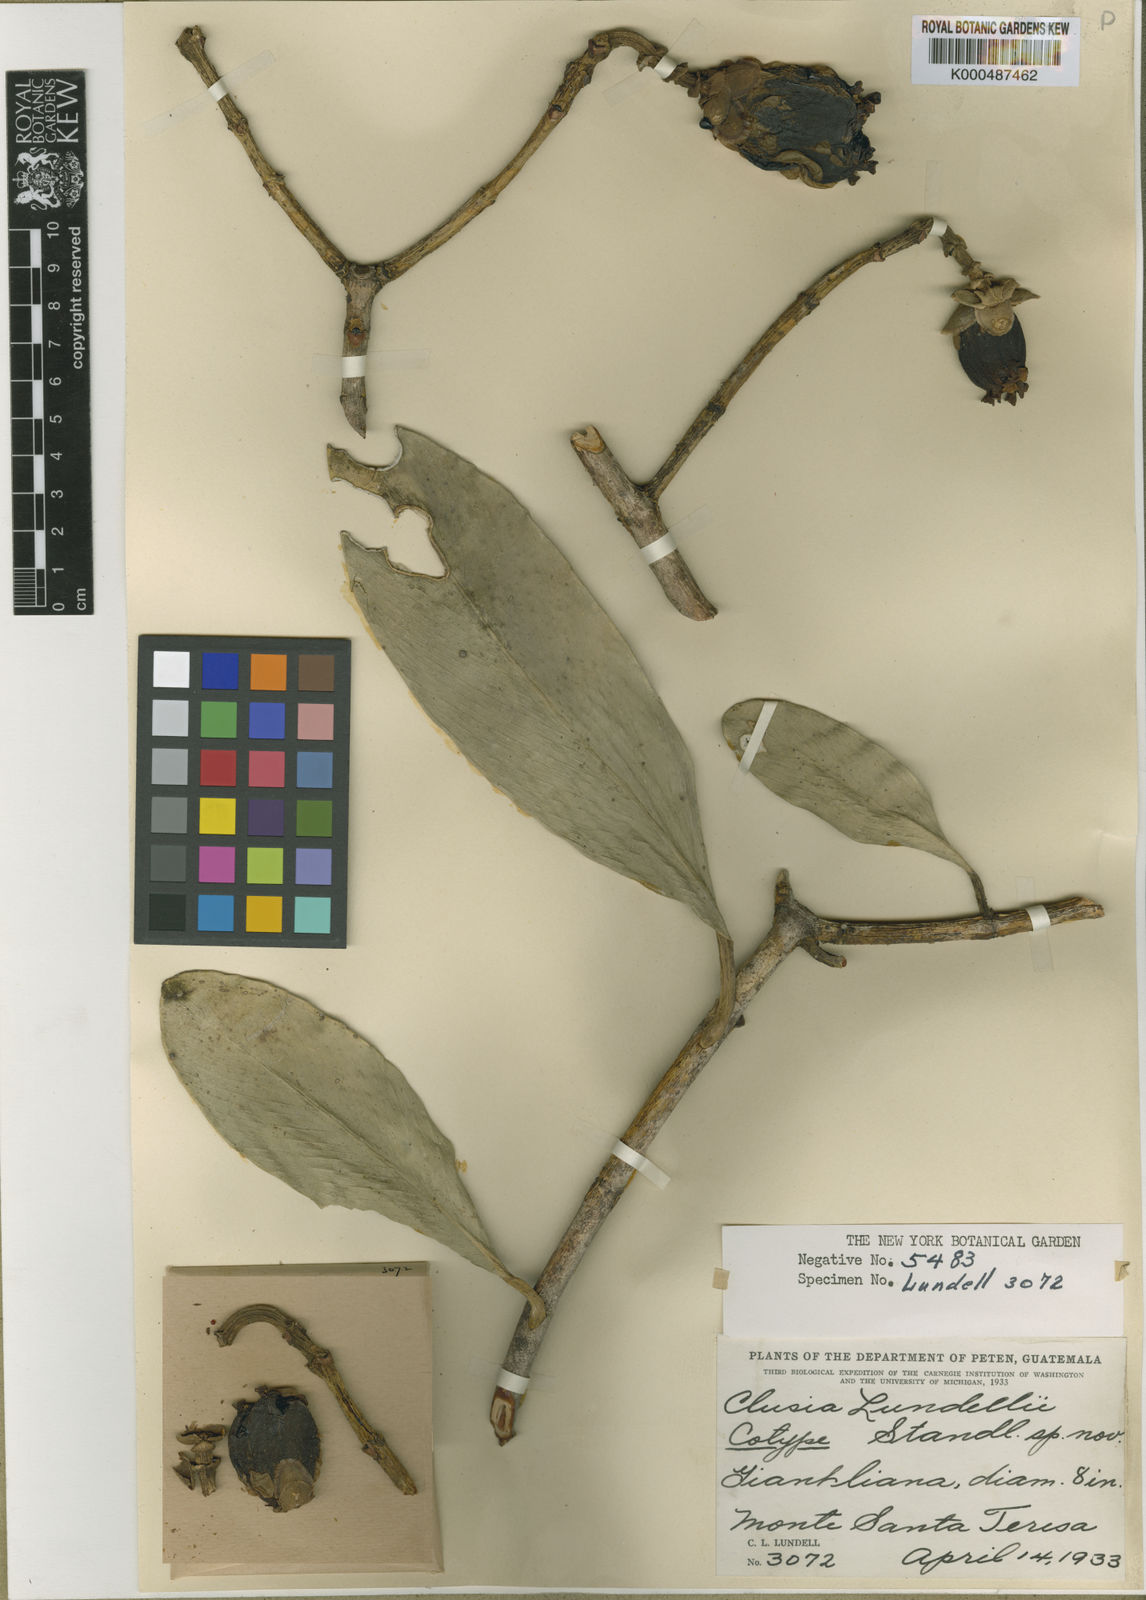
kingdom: Plantae
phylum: Tracheophyta
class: Magnoliopsida
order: Malpighiales
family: Clusiaceae
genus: Clusia
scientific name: Clusia lundellii
